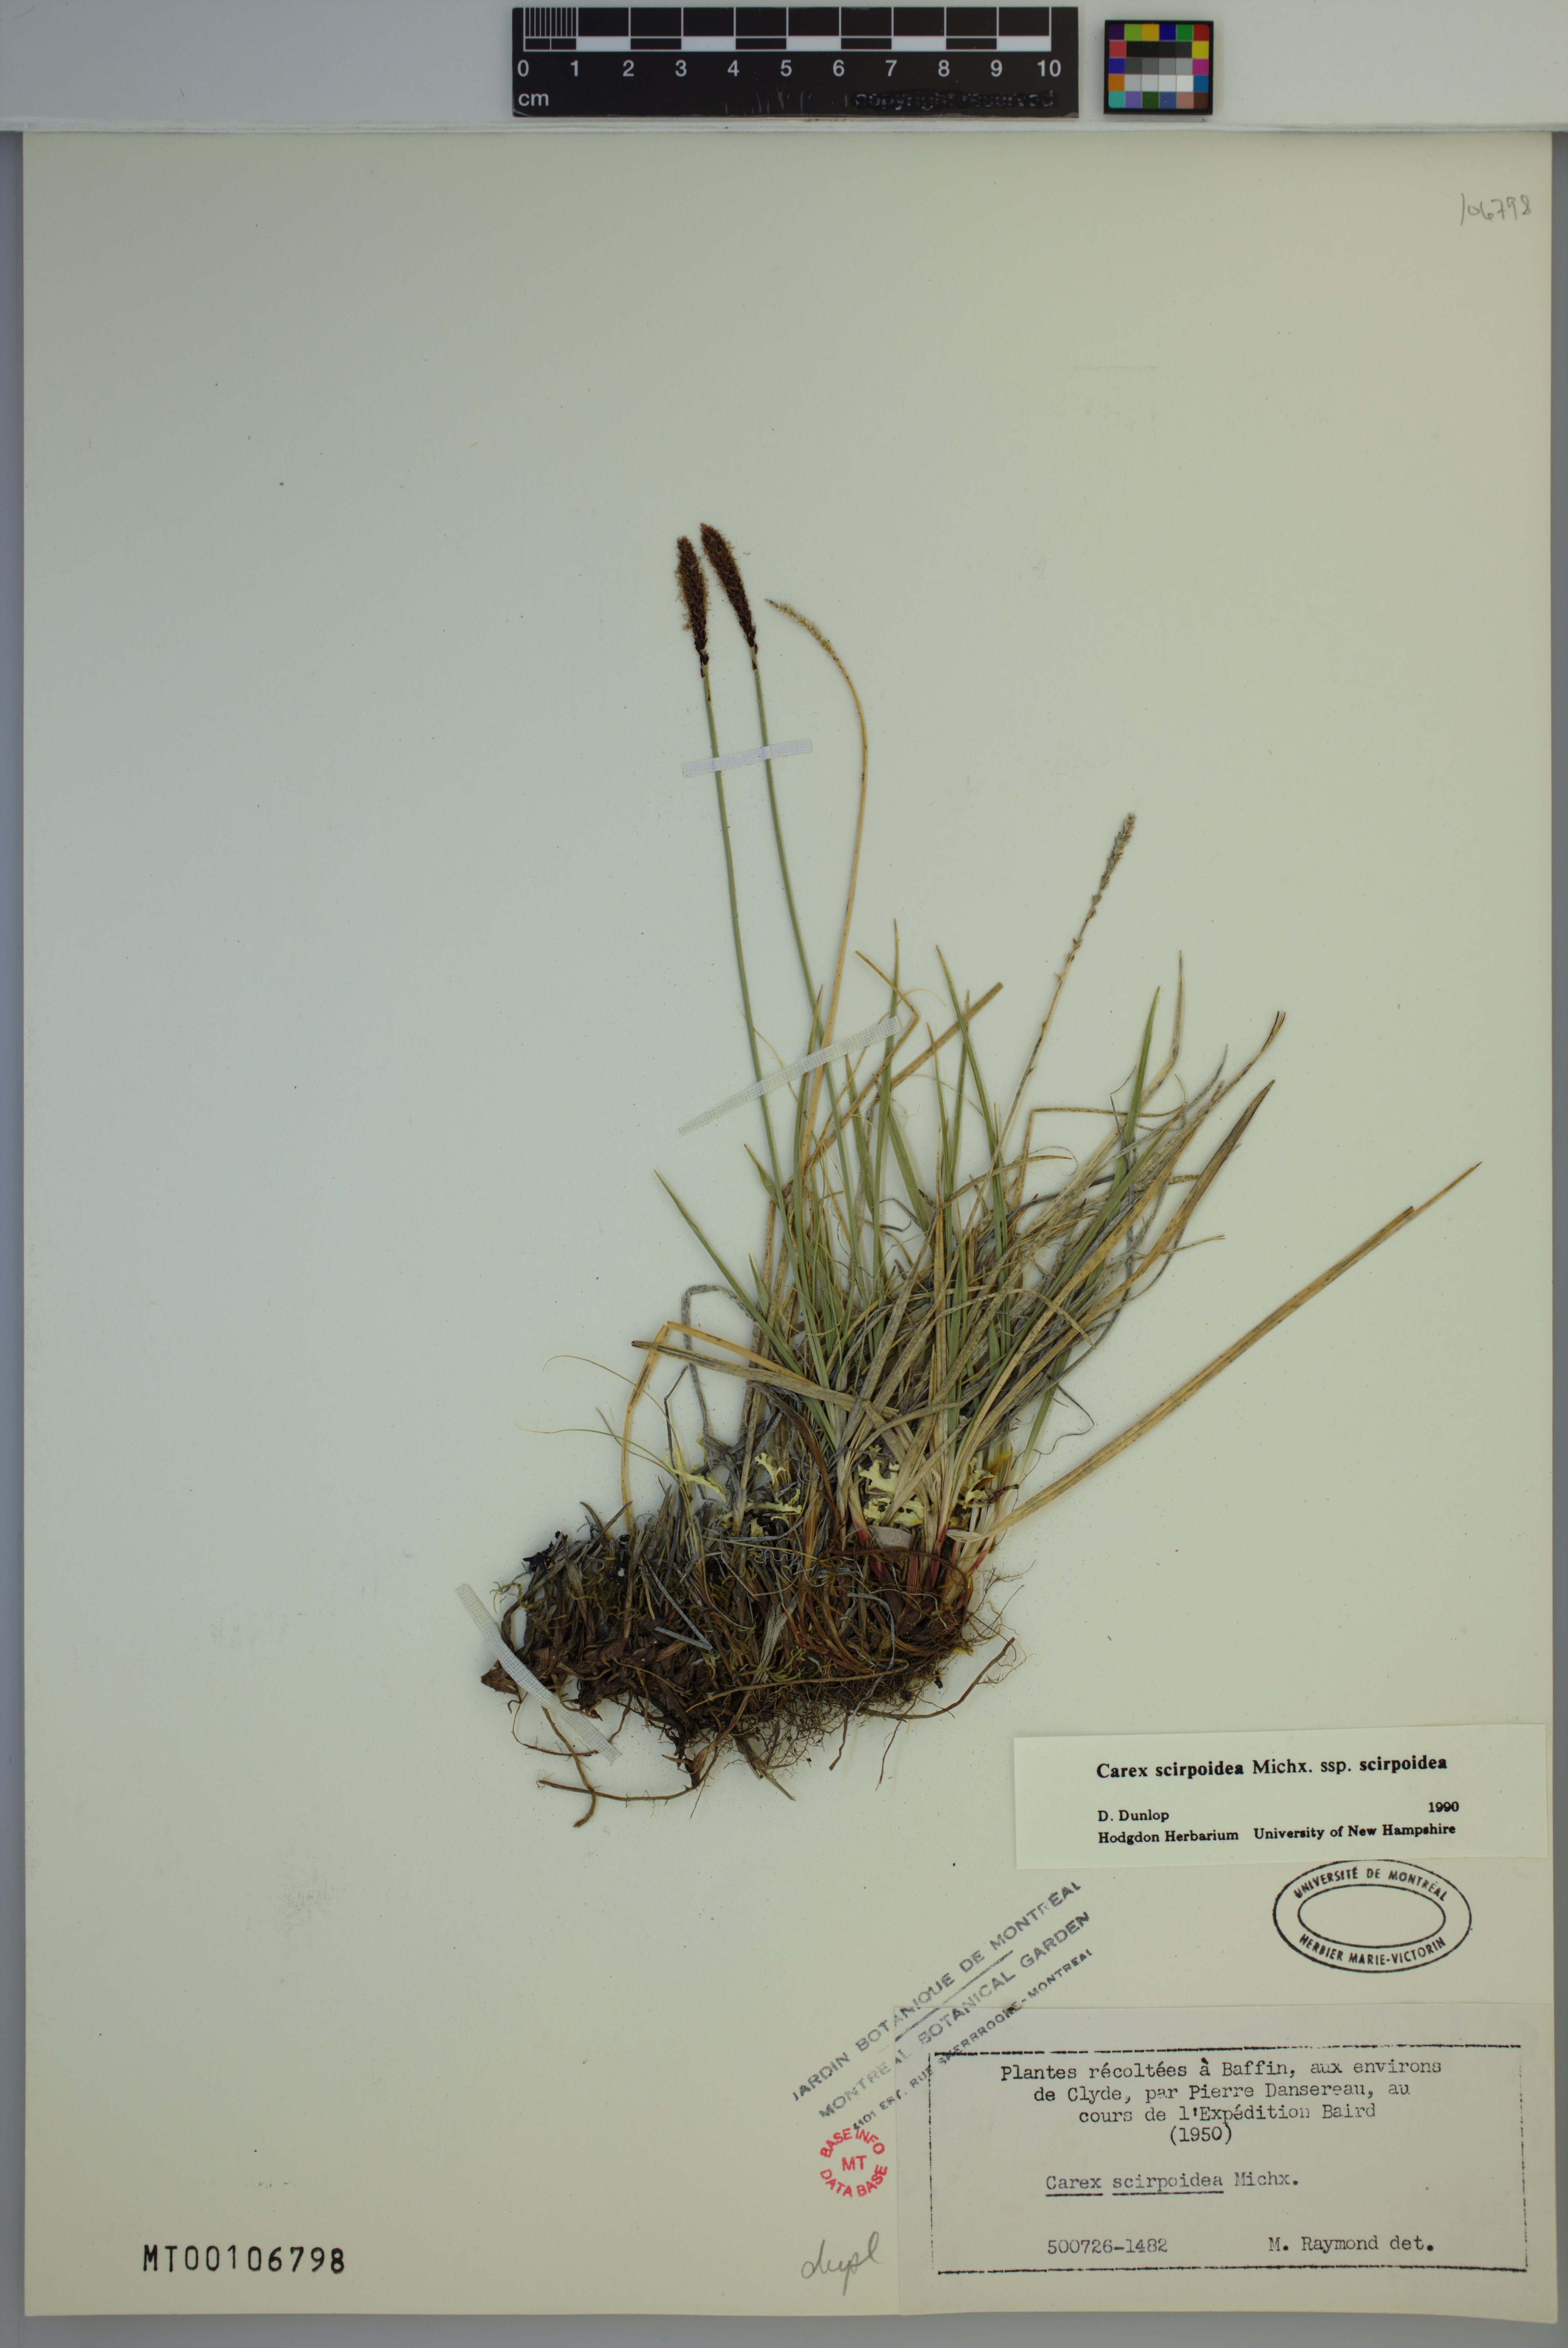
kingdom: Plantae
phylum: Tracheophyta
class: Liliopsida
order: Poales
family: Cyperaceae
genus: Carex
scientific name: Carex scirpoidea
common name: Canada single-spike sedge
